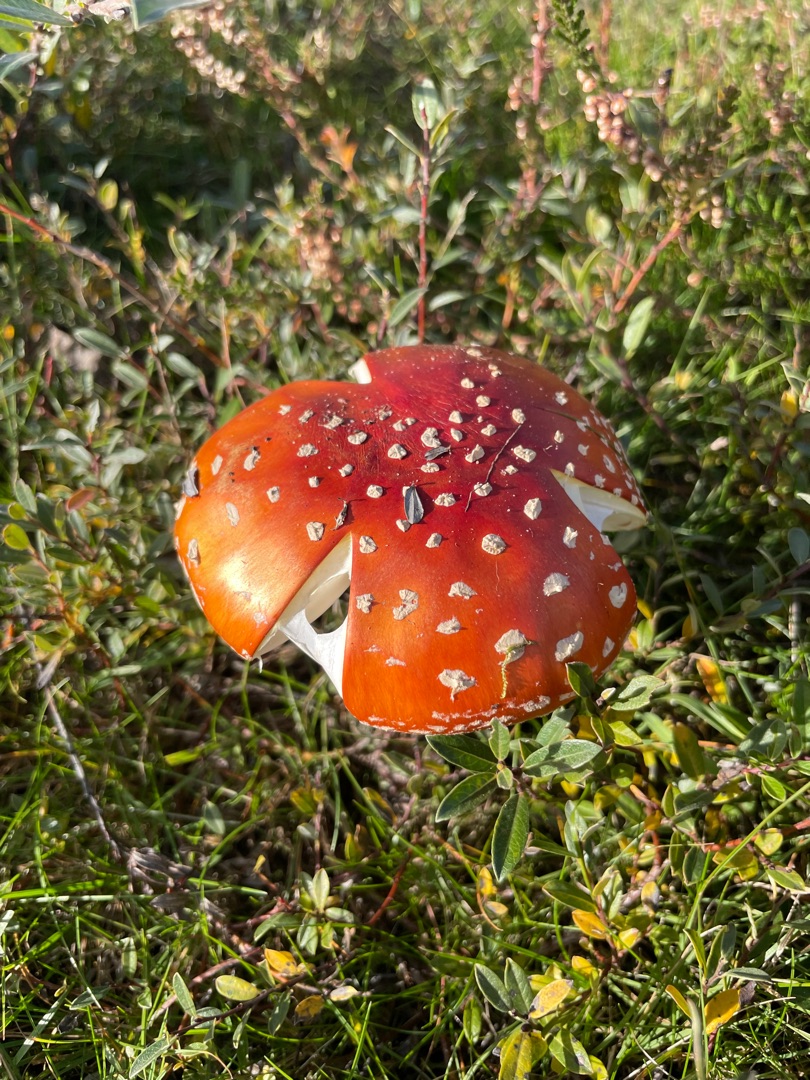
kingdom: Fungi
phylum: Basidiomycota
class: Agaricomycetes
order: Agaricales
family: Amanitaceae
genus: Amanita
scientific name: Amanita muscaria
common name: Rød fluesvamp
